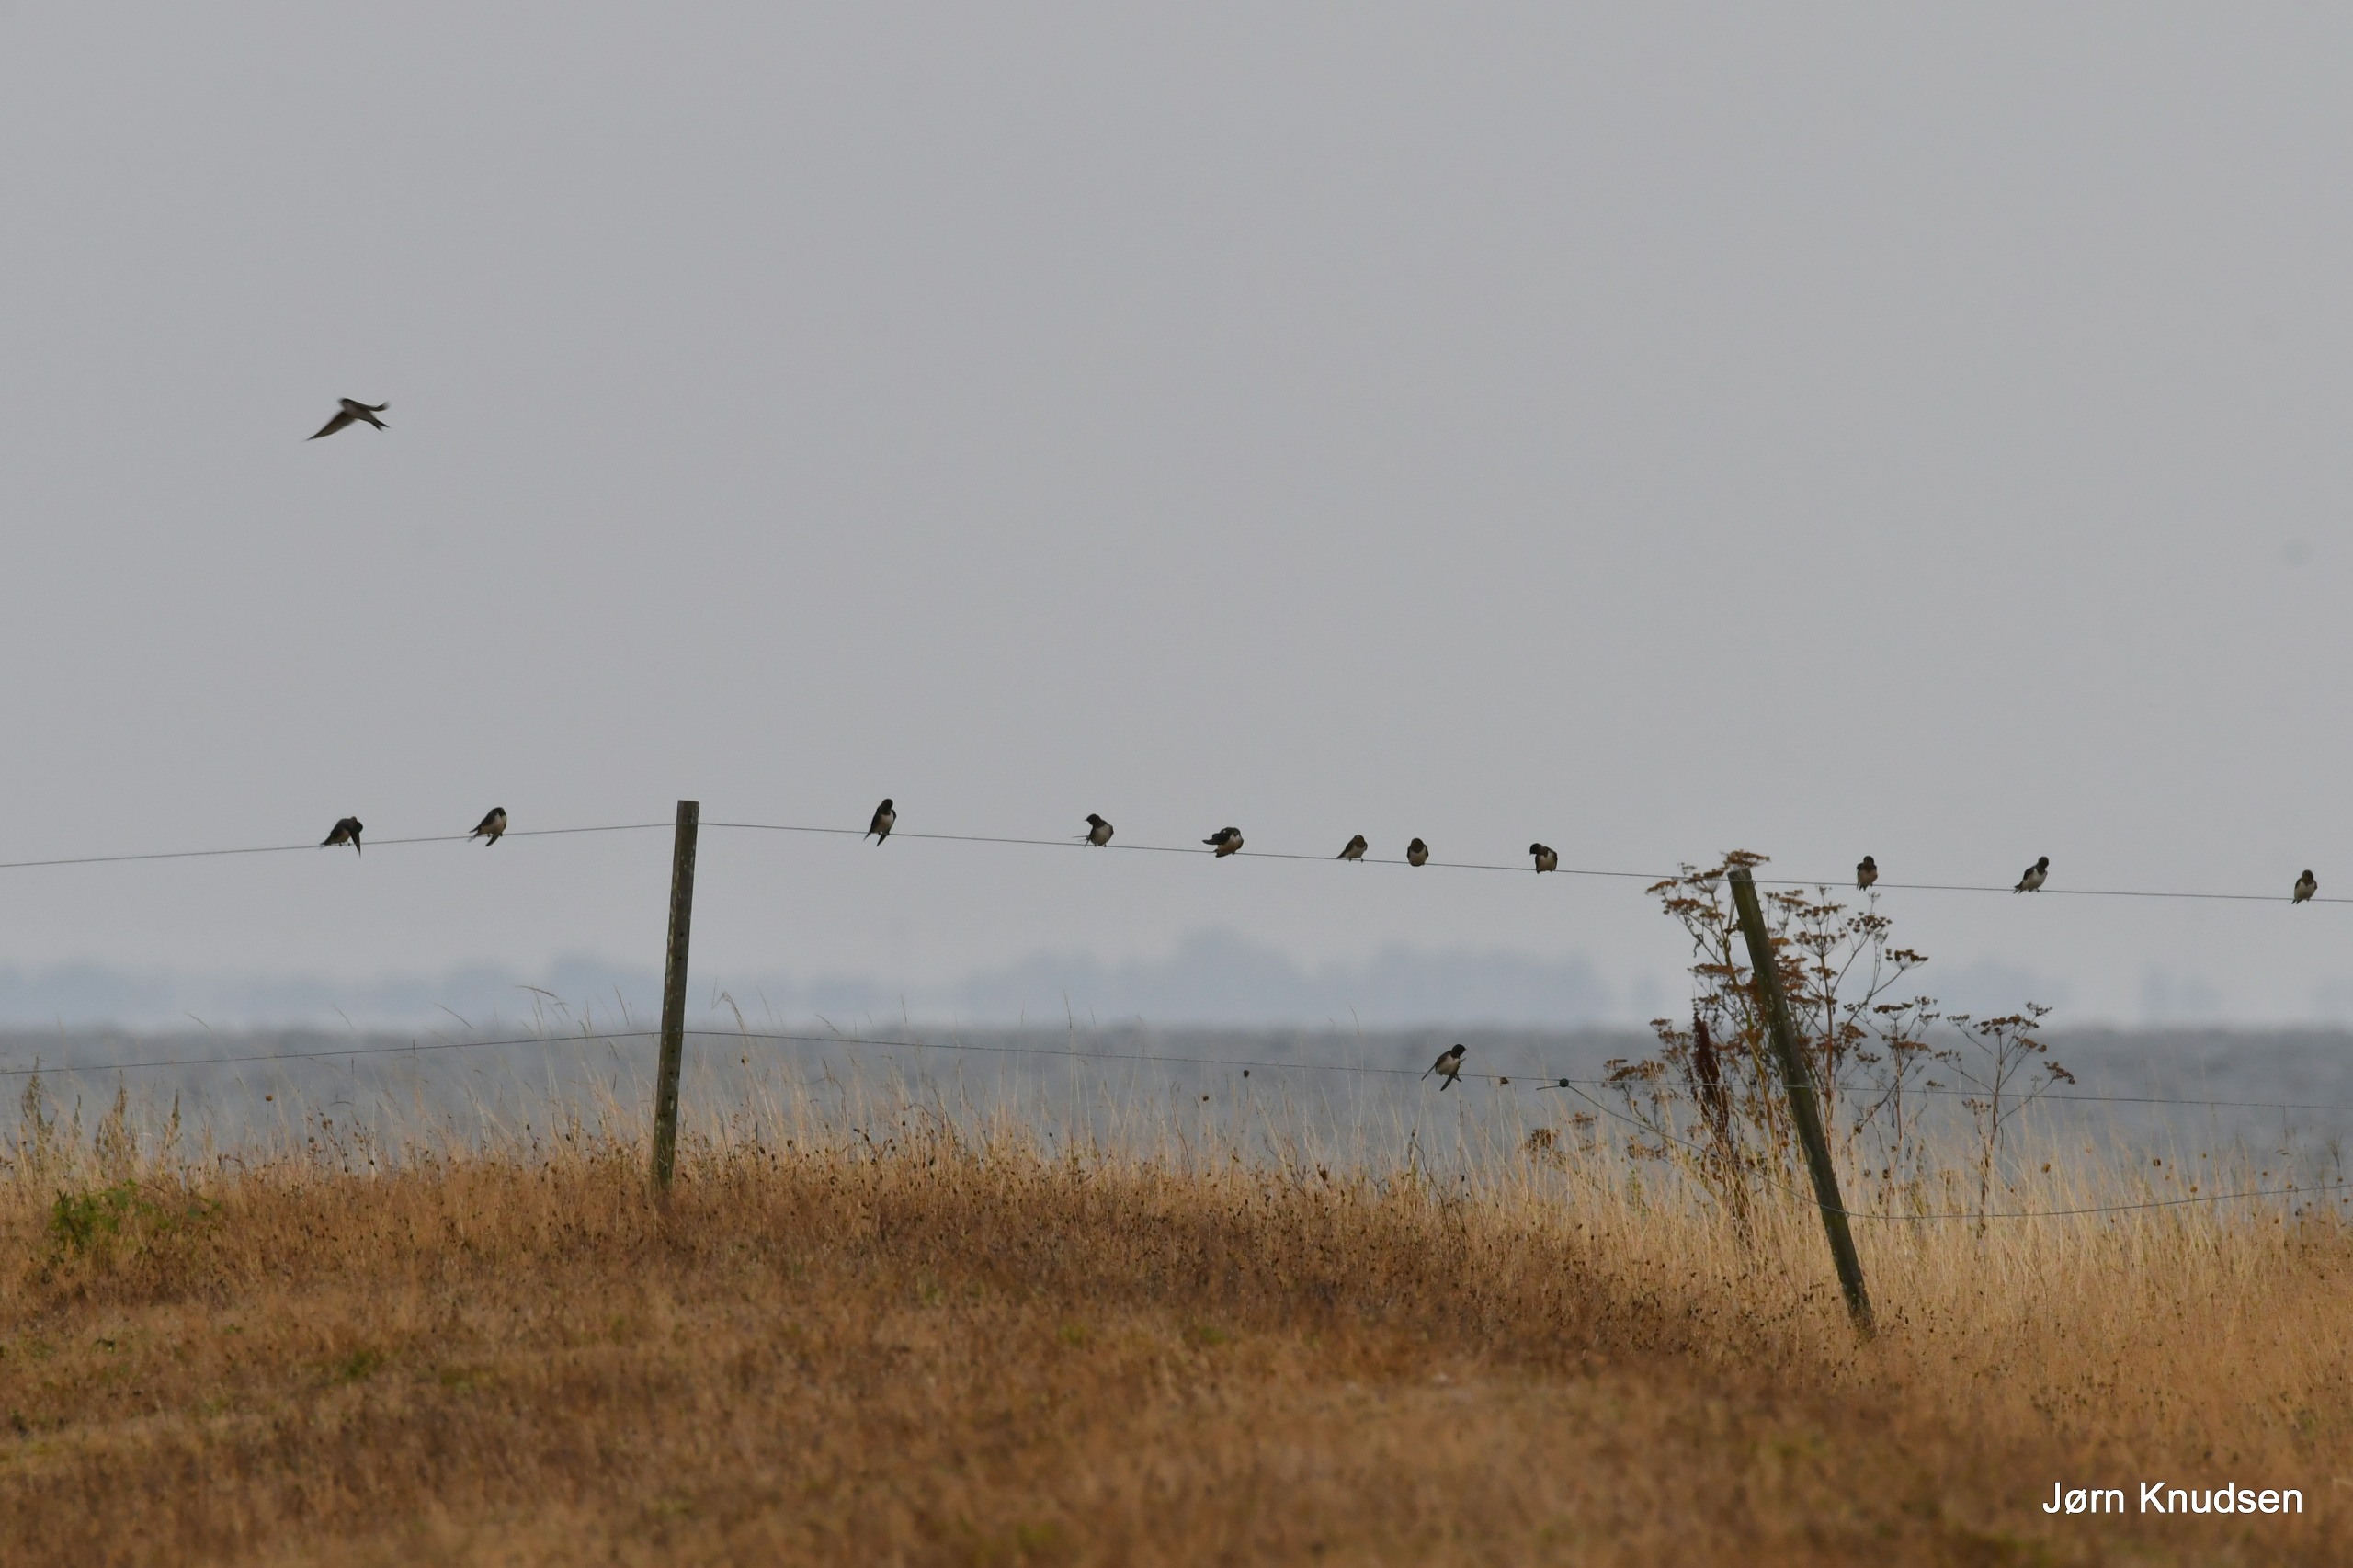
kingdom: Animalia
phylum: Chordata
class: Aves
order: Passeriformes
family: Hirundinidae
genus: Hirundo
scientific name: Hirundo rustica
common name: Landsvale
